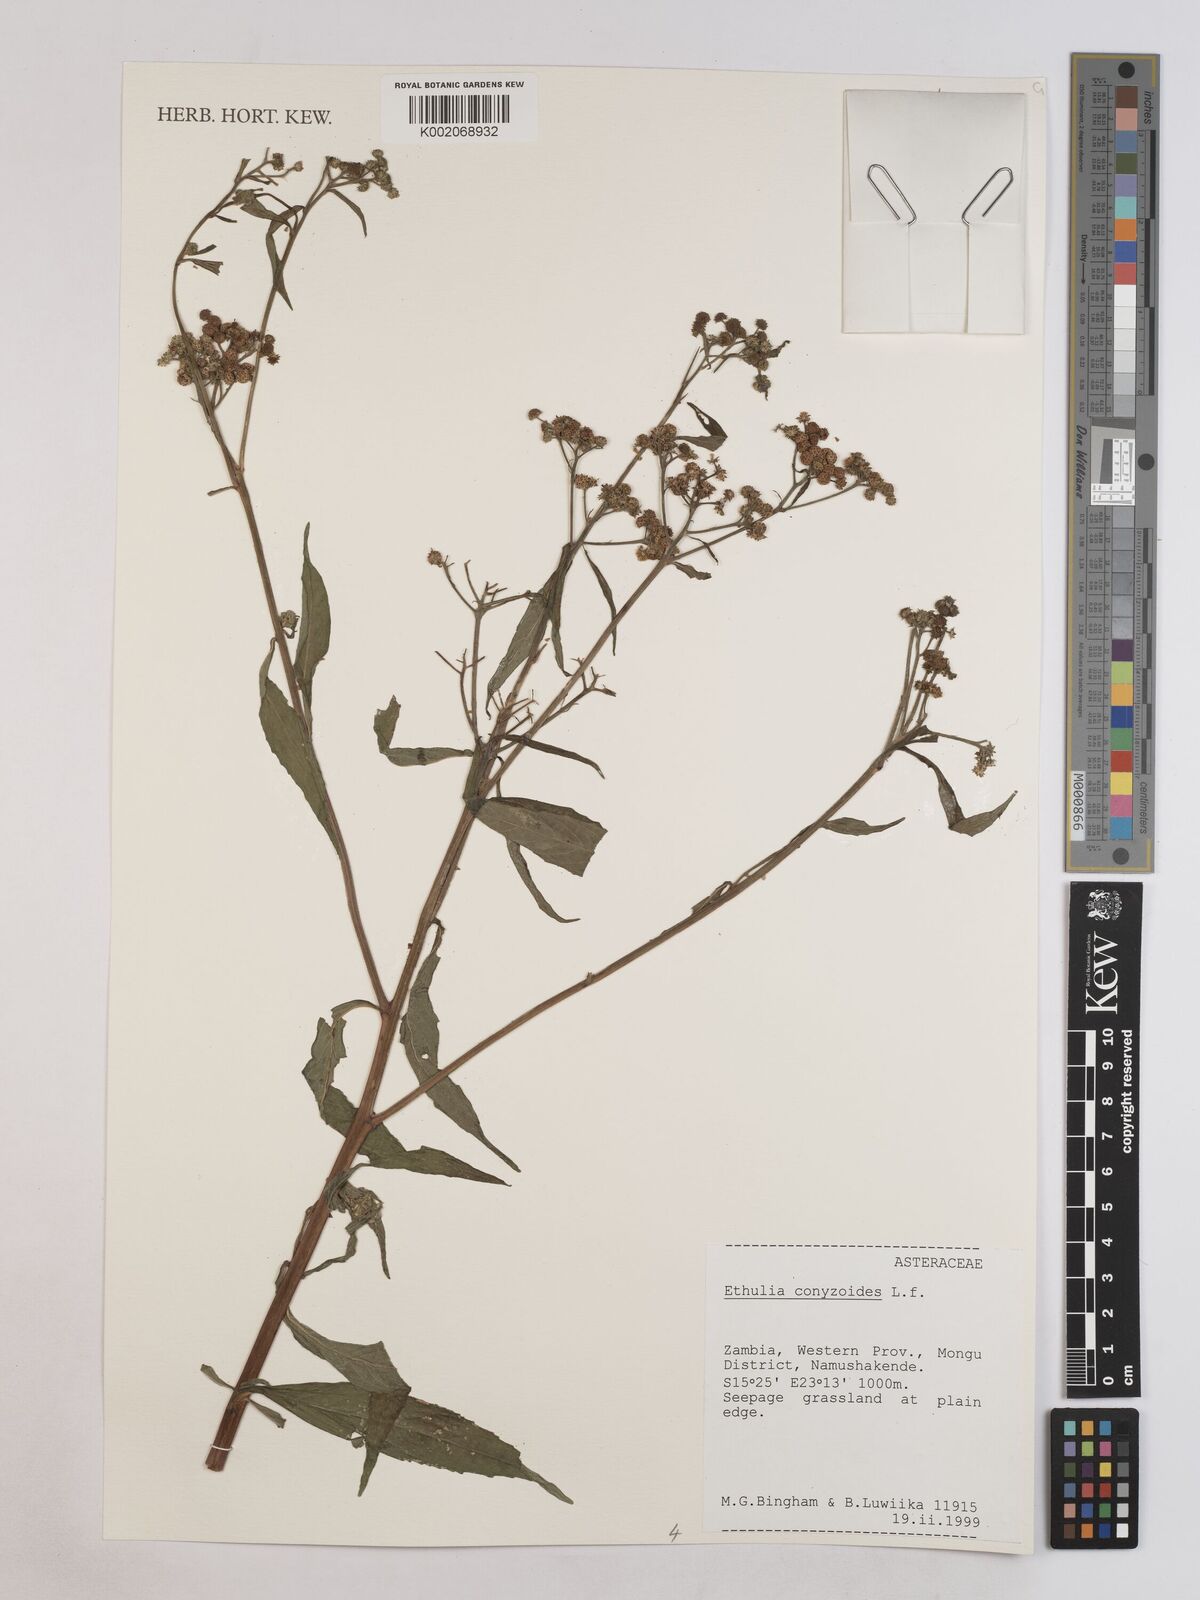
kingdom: Plantae
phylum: Tracheophyta
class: Magnoliopsida
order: Asterales
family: Asteraceae
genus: Ethulia
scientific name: Ethulia conyzoides
